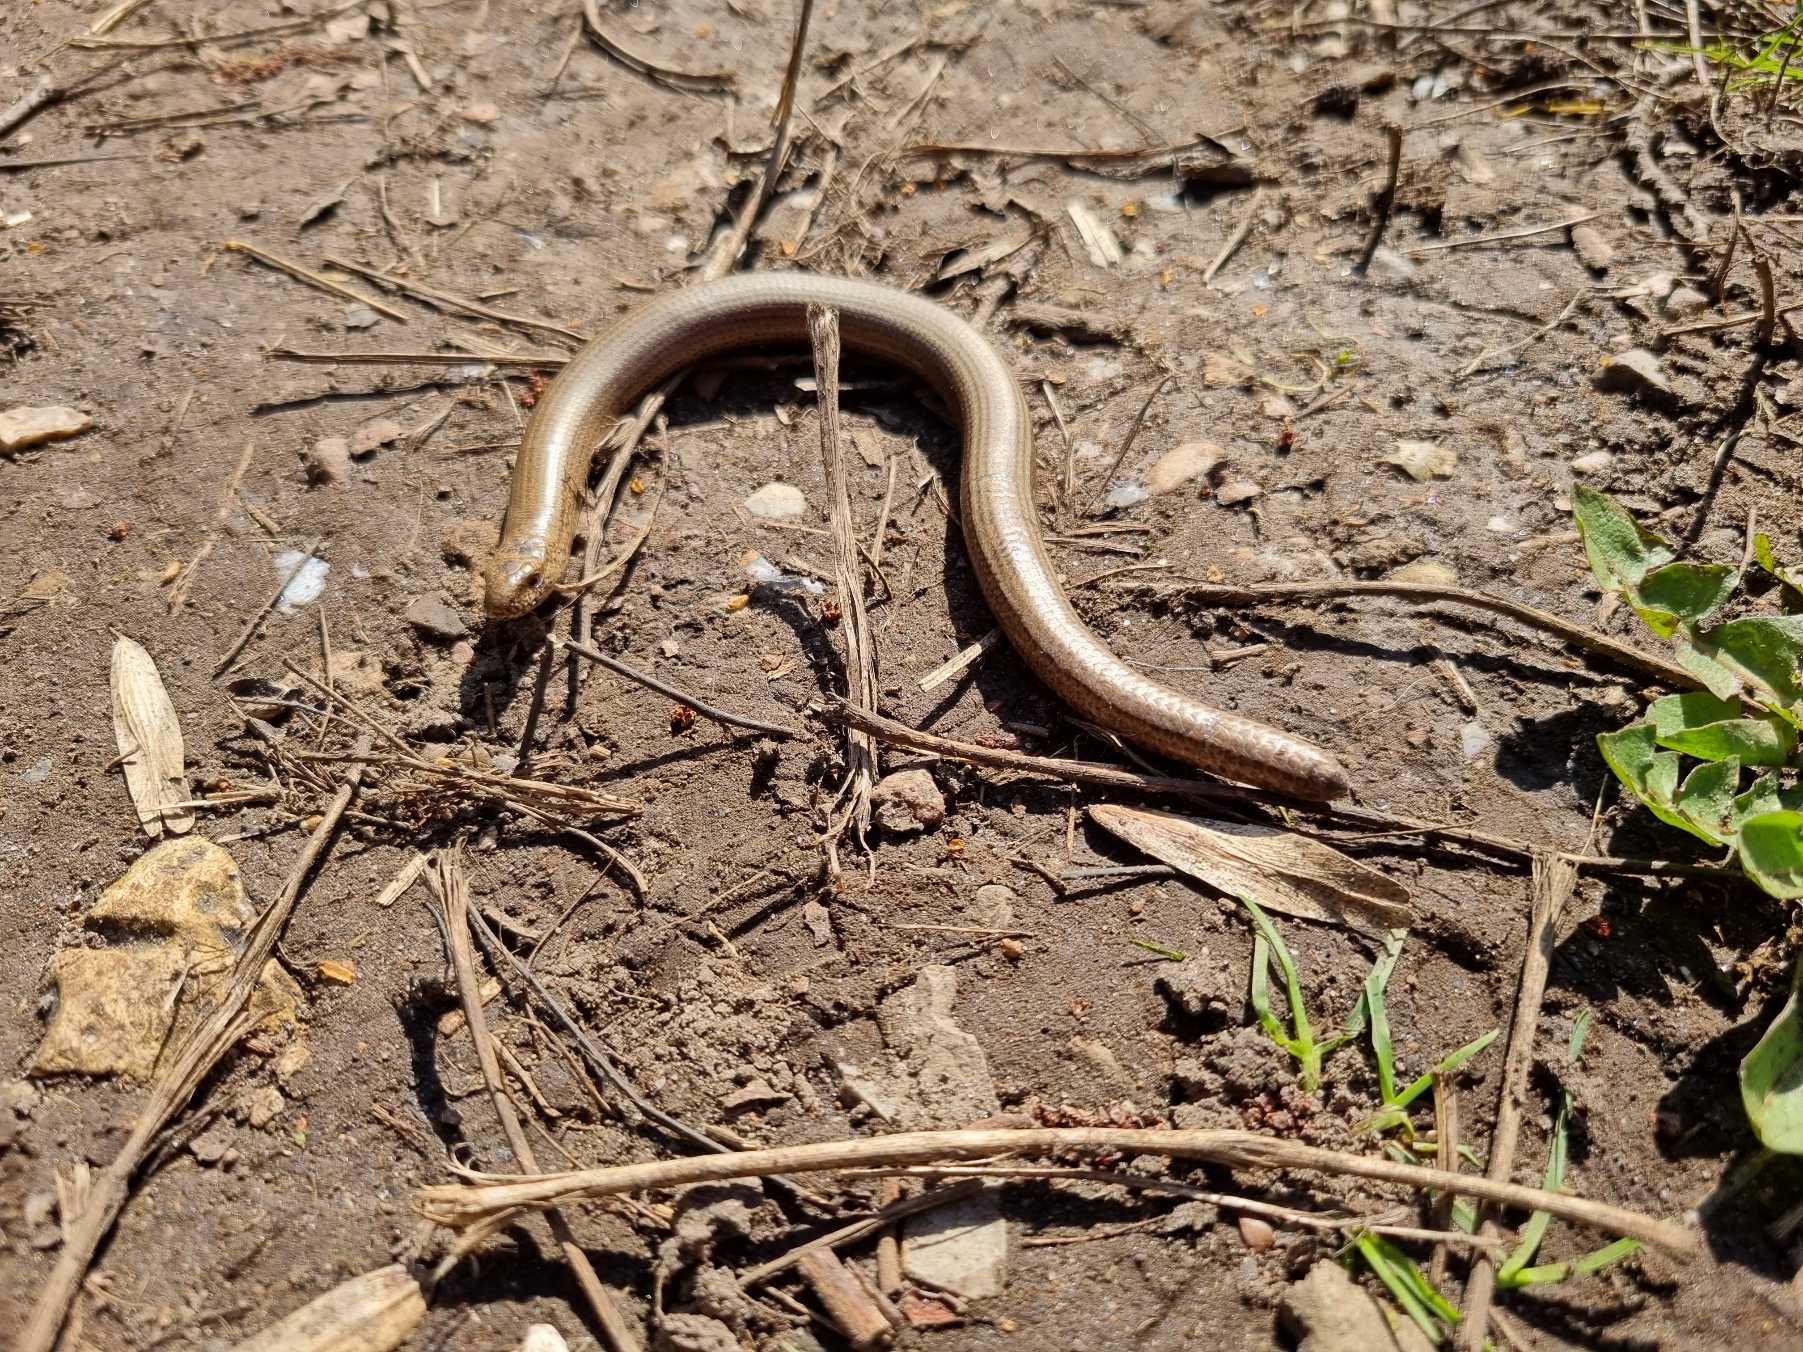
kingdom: Animalia
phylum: Chordata
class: Squamata
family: Anguidae
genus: Anguis
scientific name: Anguis fragilis
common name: Stålorm
